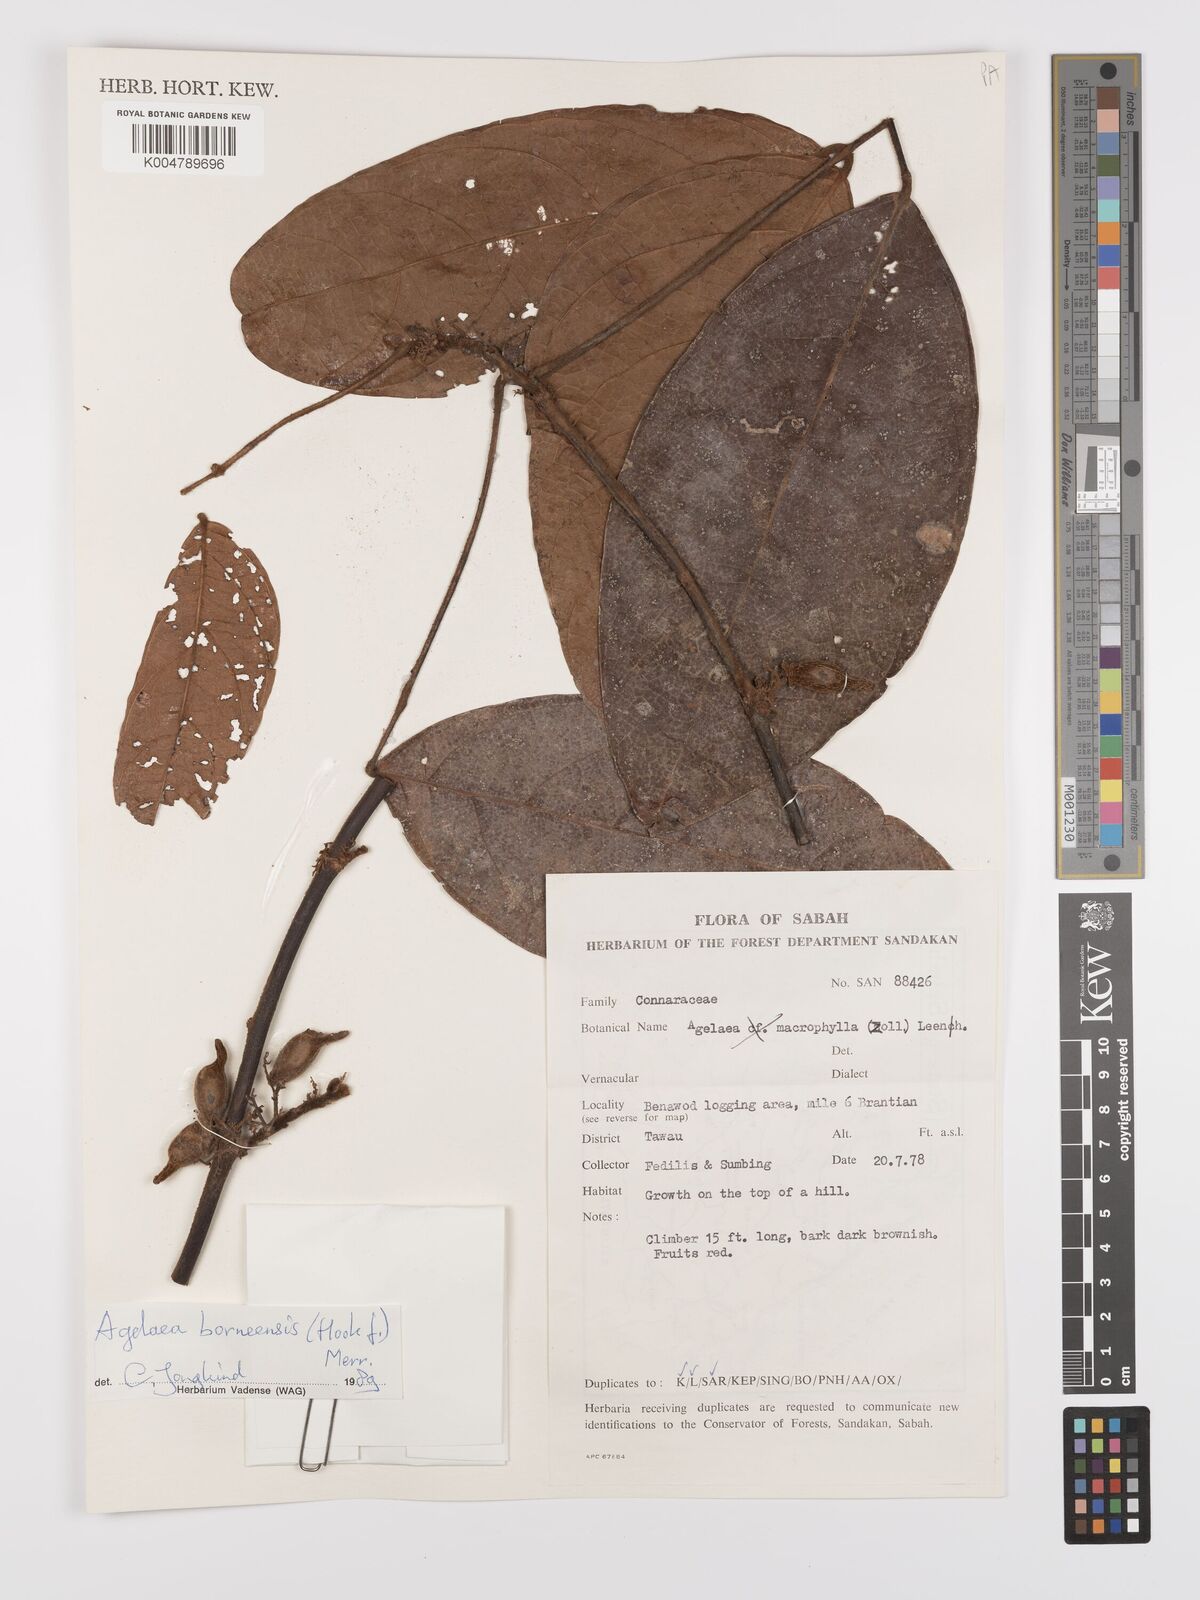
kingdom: Plantae
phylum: Tracheophyta
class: Magnoliopsida
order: Oxalidales
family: Connaraceae
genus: Agelaea
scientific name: Agelaea borneensis
